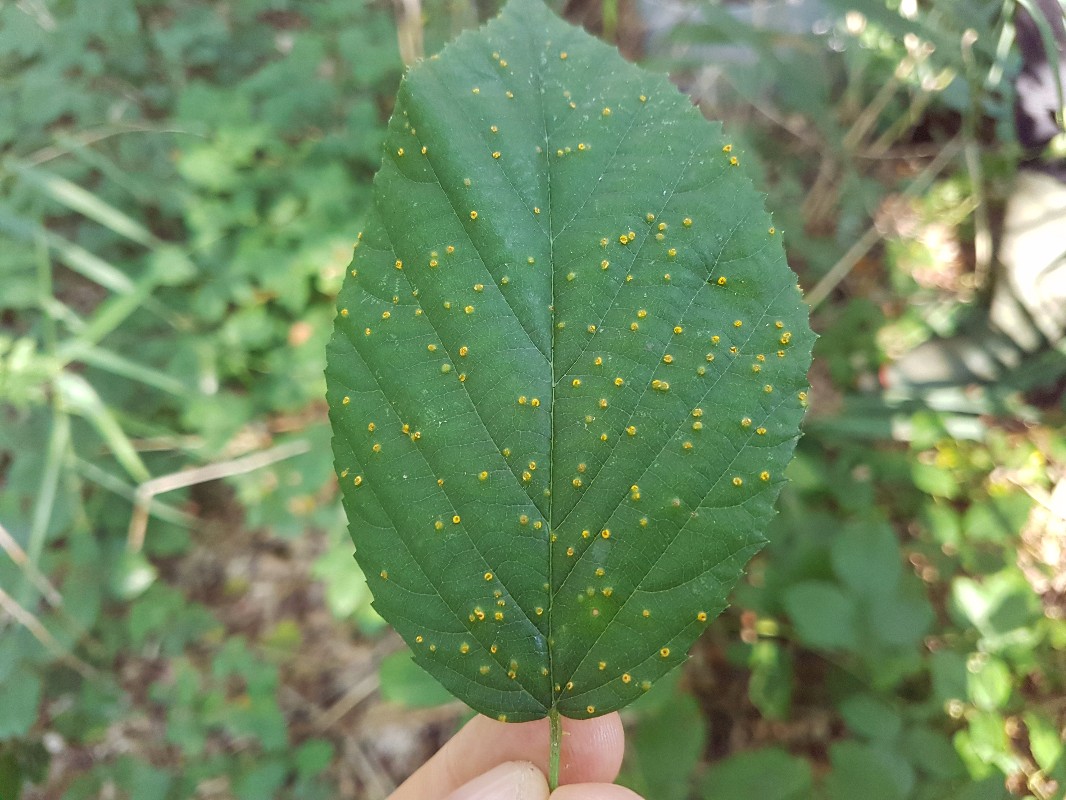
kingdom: Fungi
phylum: Basidiomycota
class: Pucciniomycetes
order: Pucciniales
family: Pucciniaceae
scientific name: Pucciniaceae
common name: rustsvampfamilien
